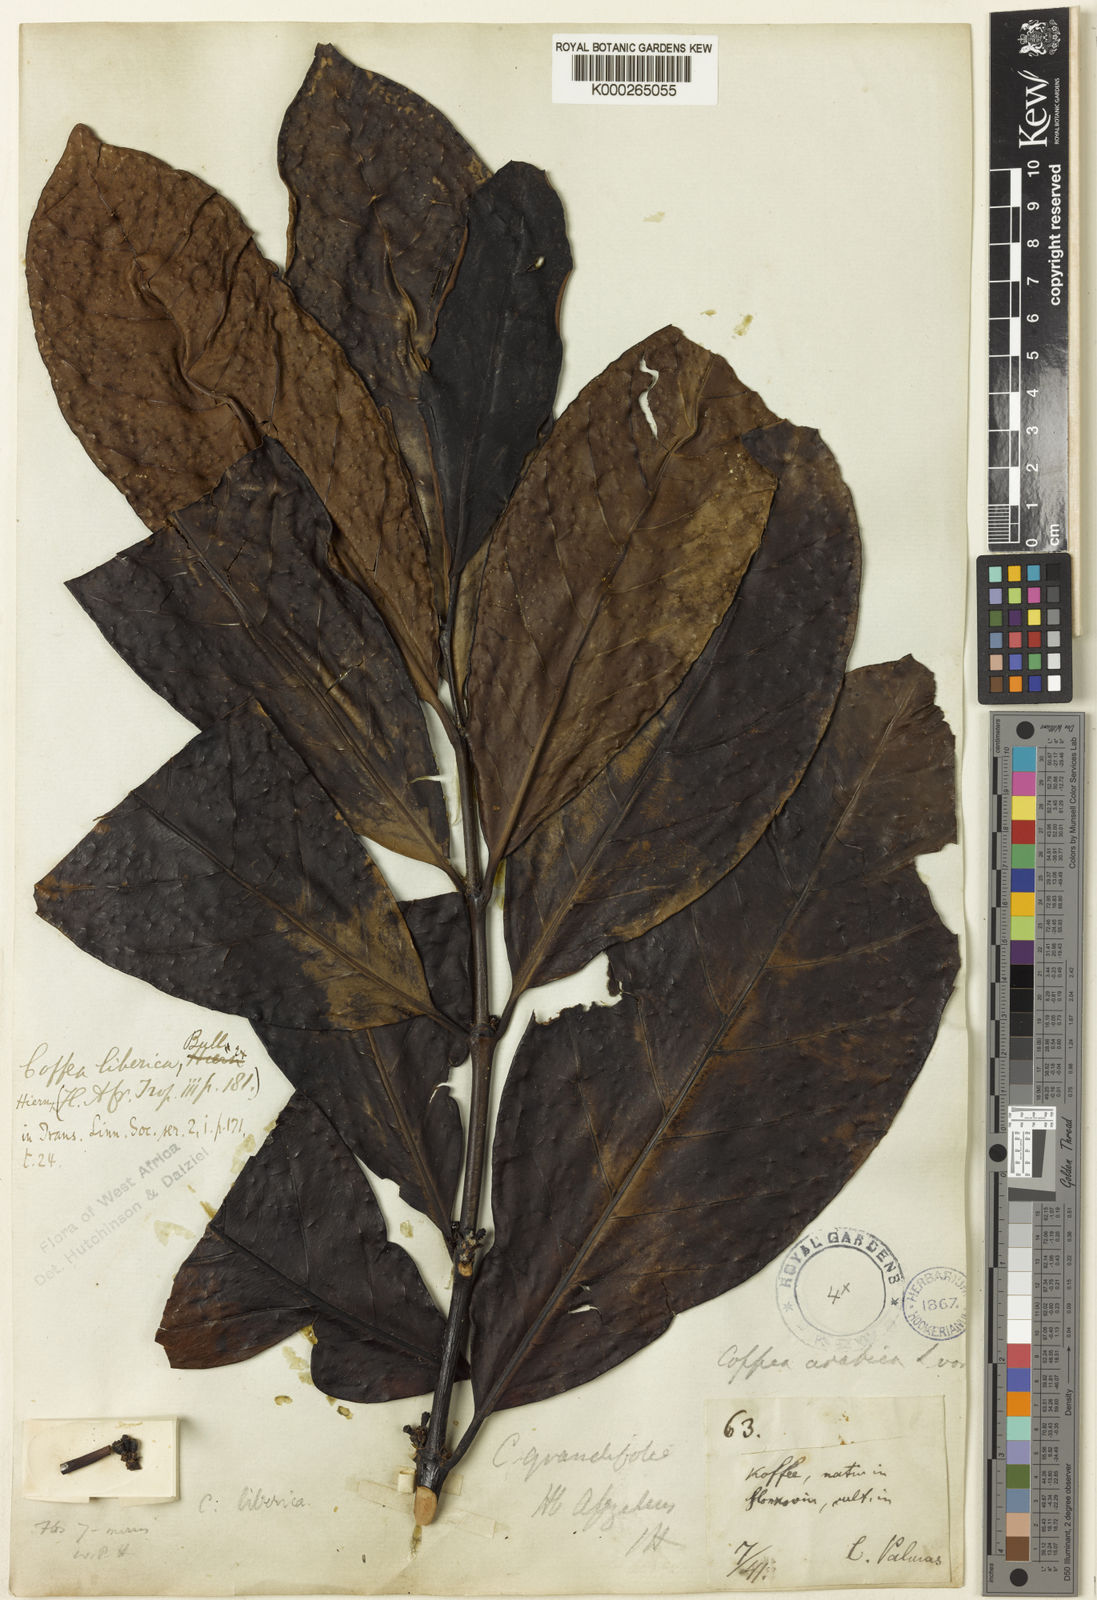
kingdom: Plantae
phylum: Tracheophyta
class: Magnoliopsida
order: Gentianales
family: Rubiaceae
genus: Coffea
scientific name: Coffea
